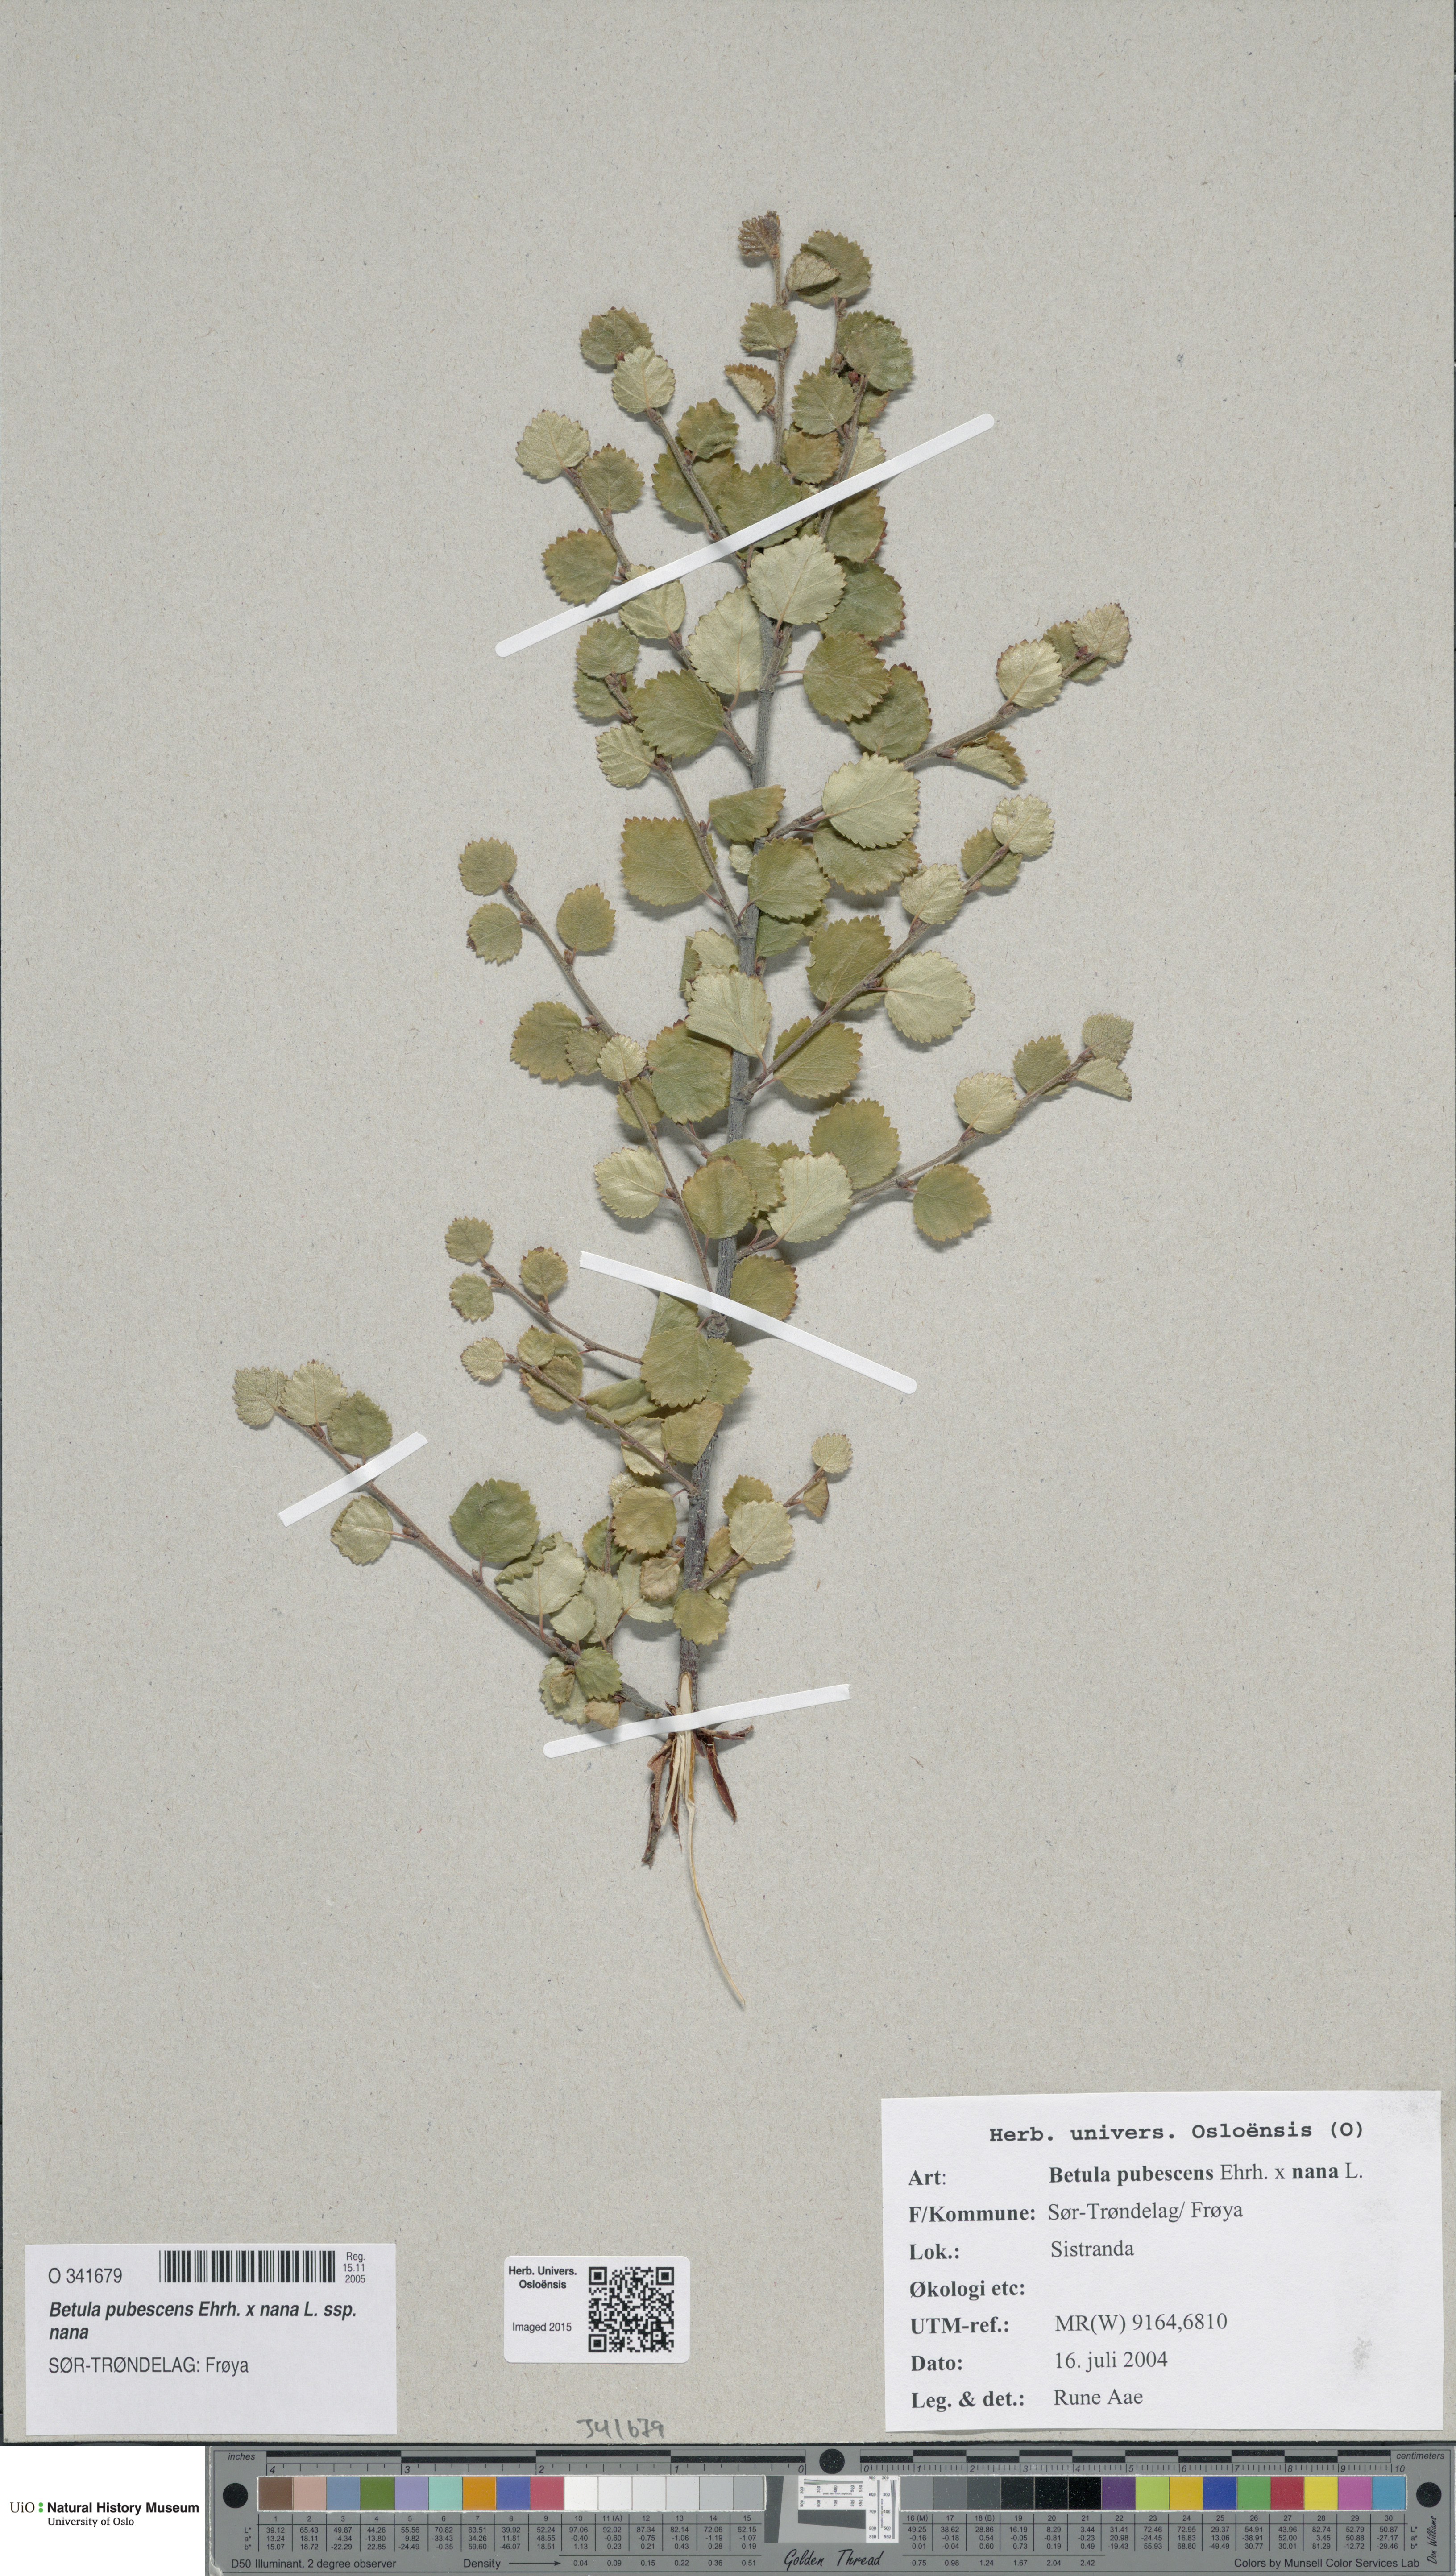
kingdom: Plantae
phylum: Tracheophyta
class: Magnoliopsida
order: Fagales
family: Betulaceae
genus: Betula
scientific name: Betula
